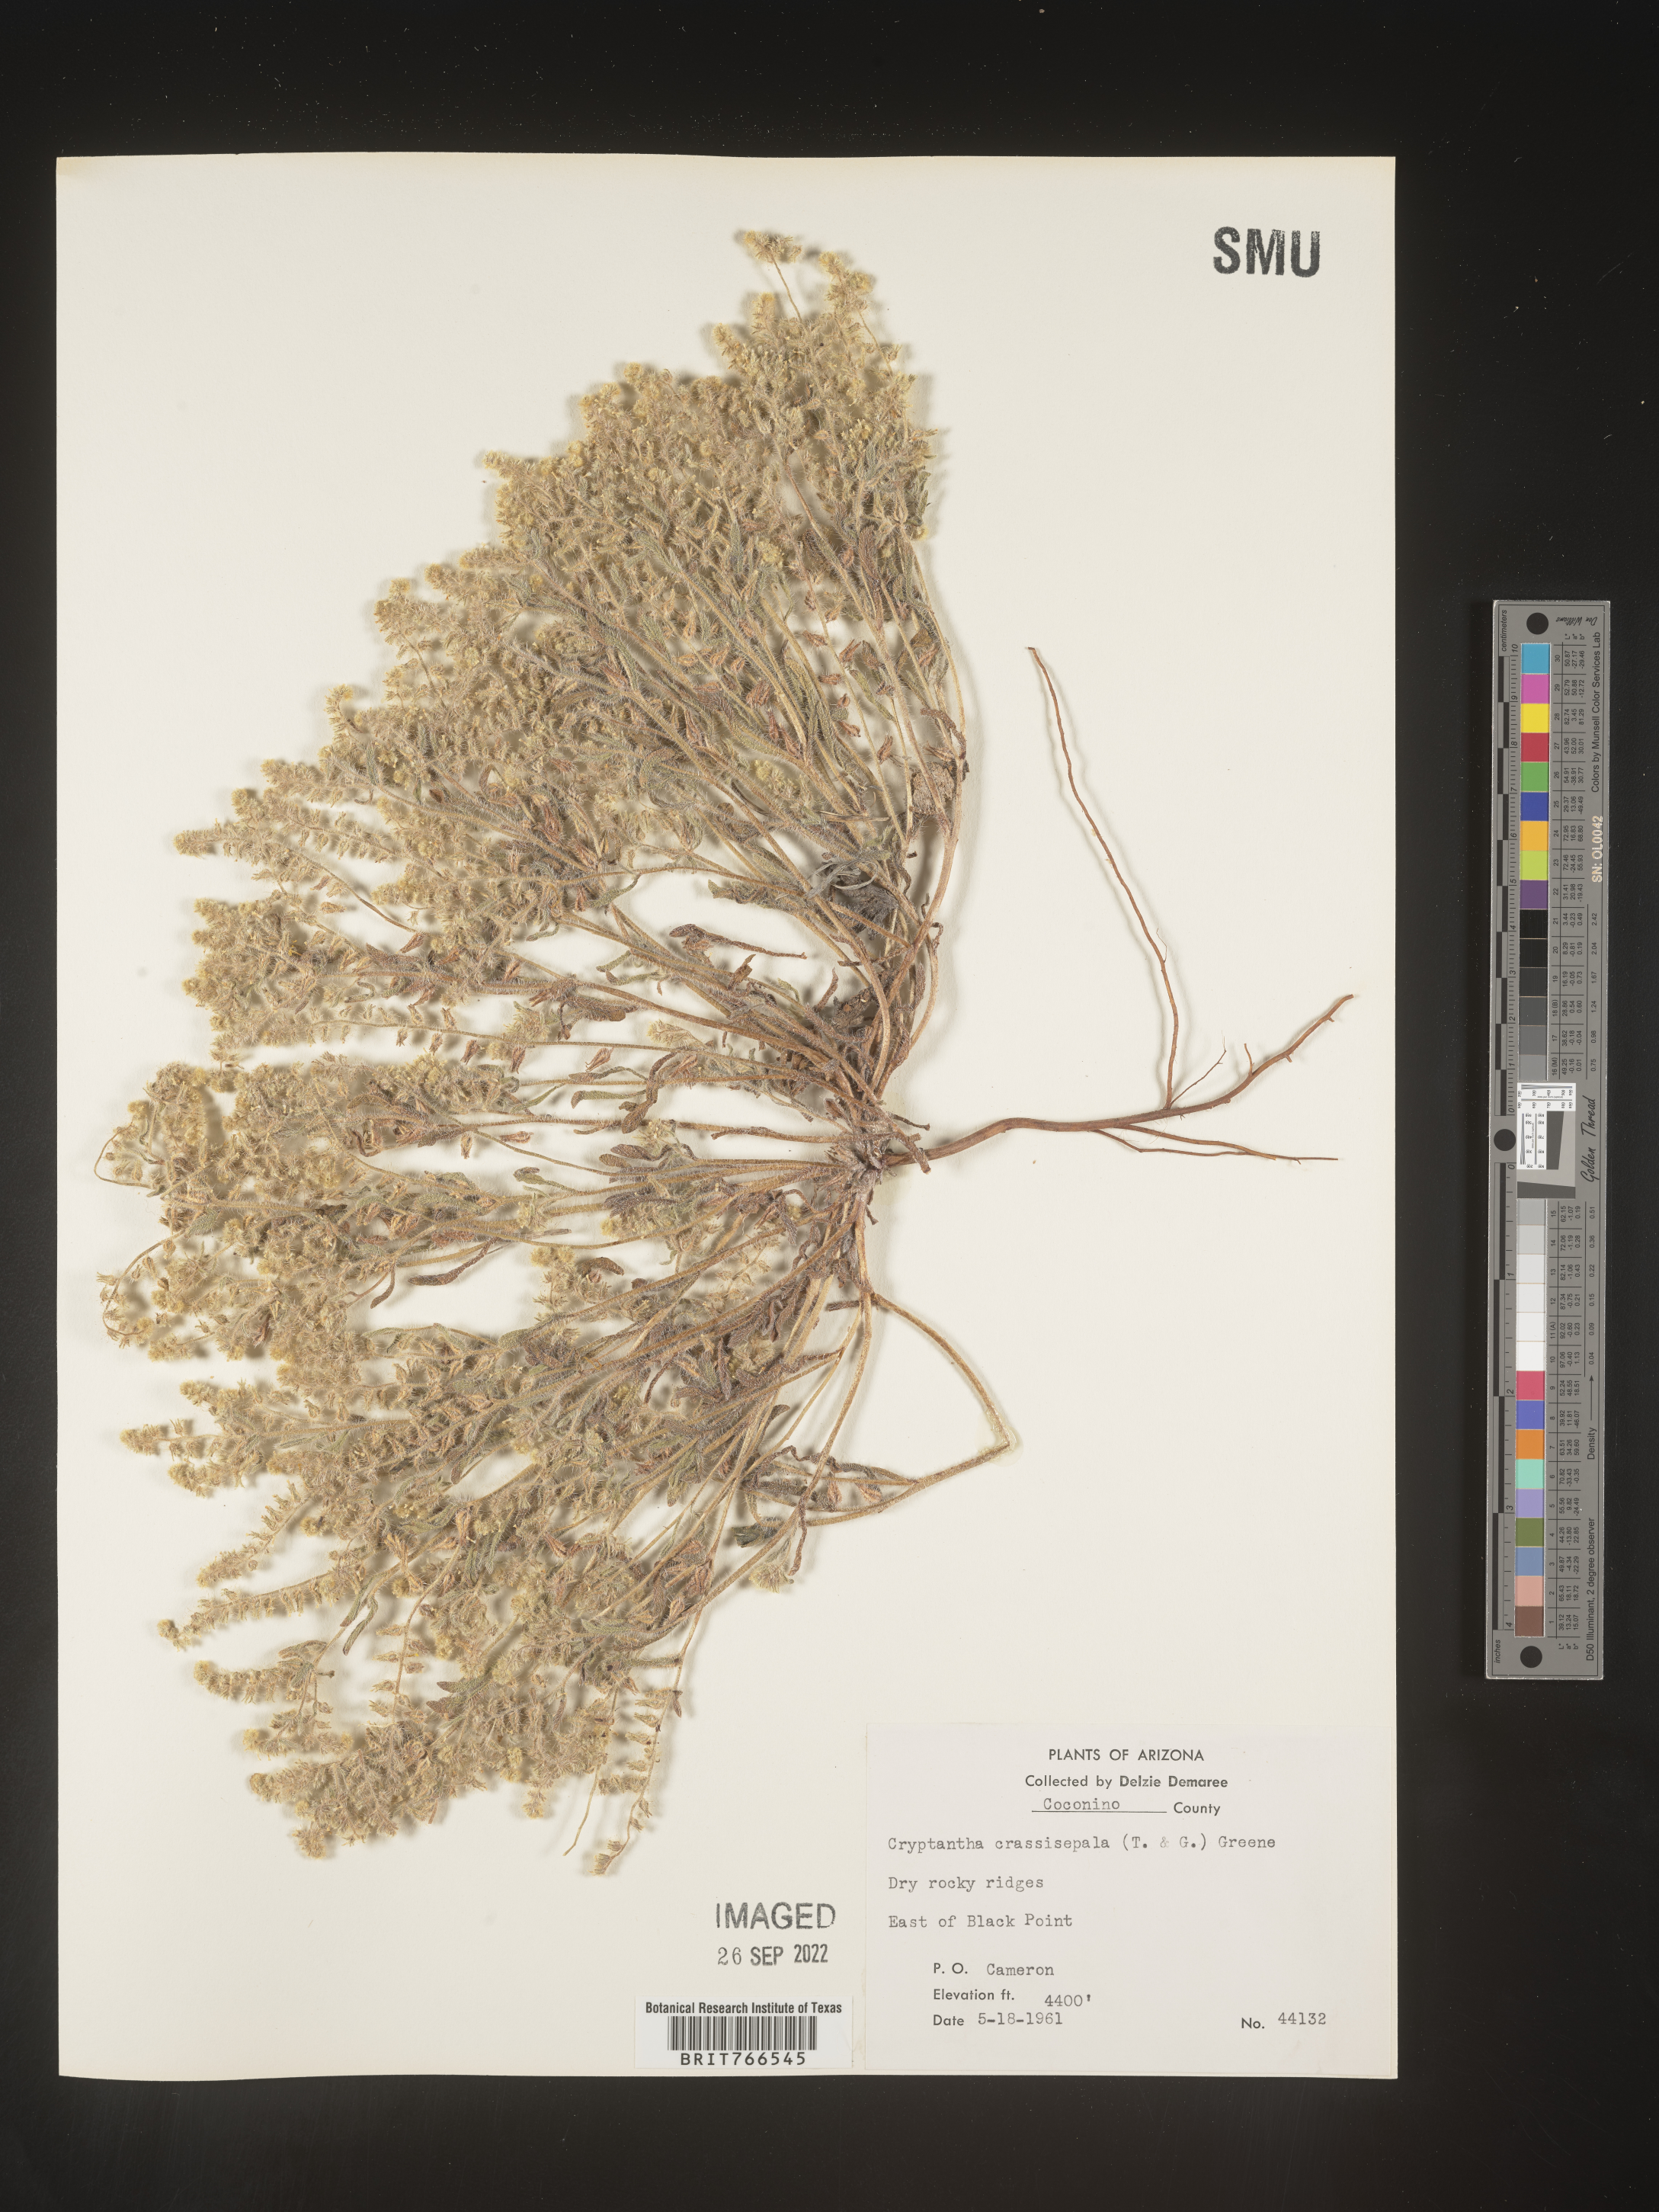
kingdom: Plantae
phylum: Tracheophyta
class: Magnoliopsida
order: Boraginales
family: Boraginaceae
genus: Cryptantha
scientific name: Cryptantha
